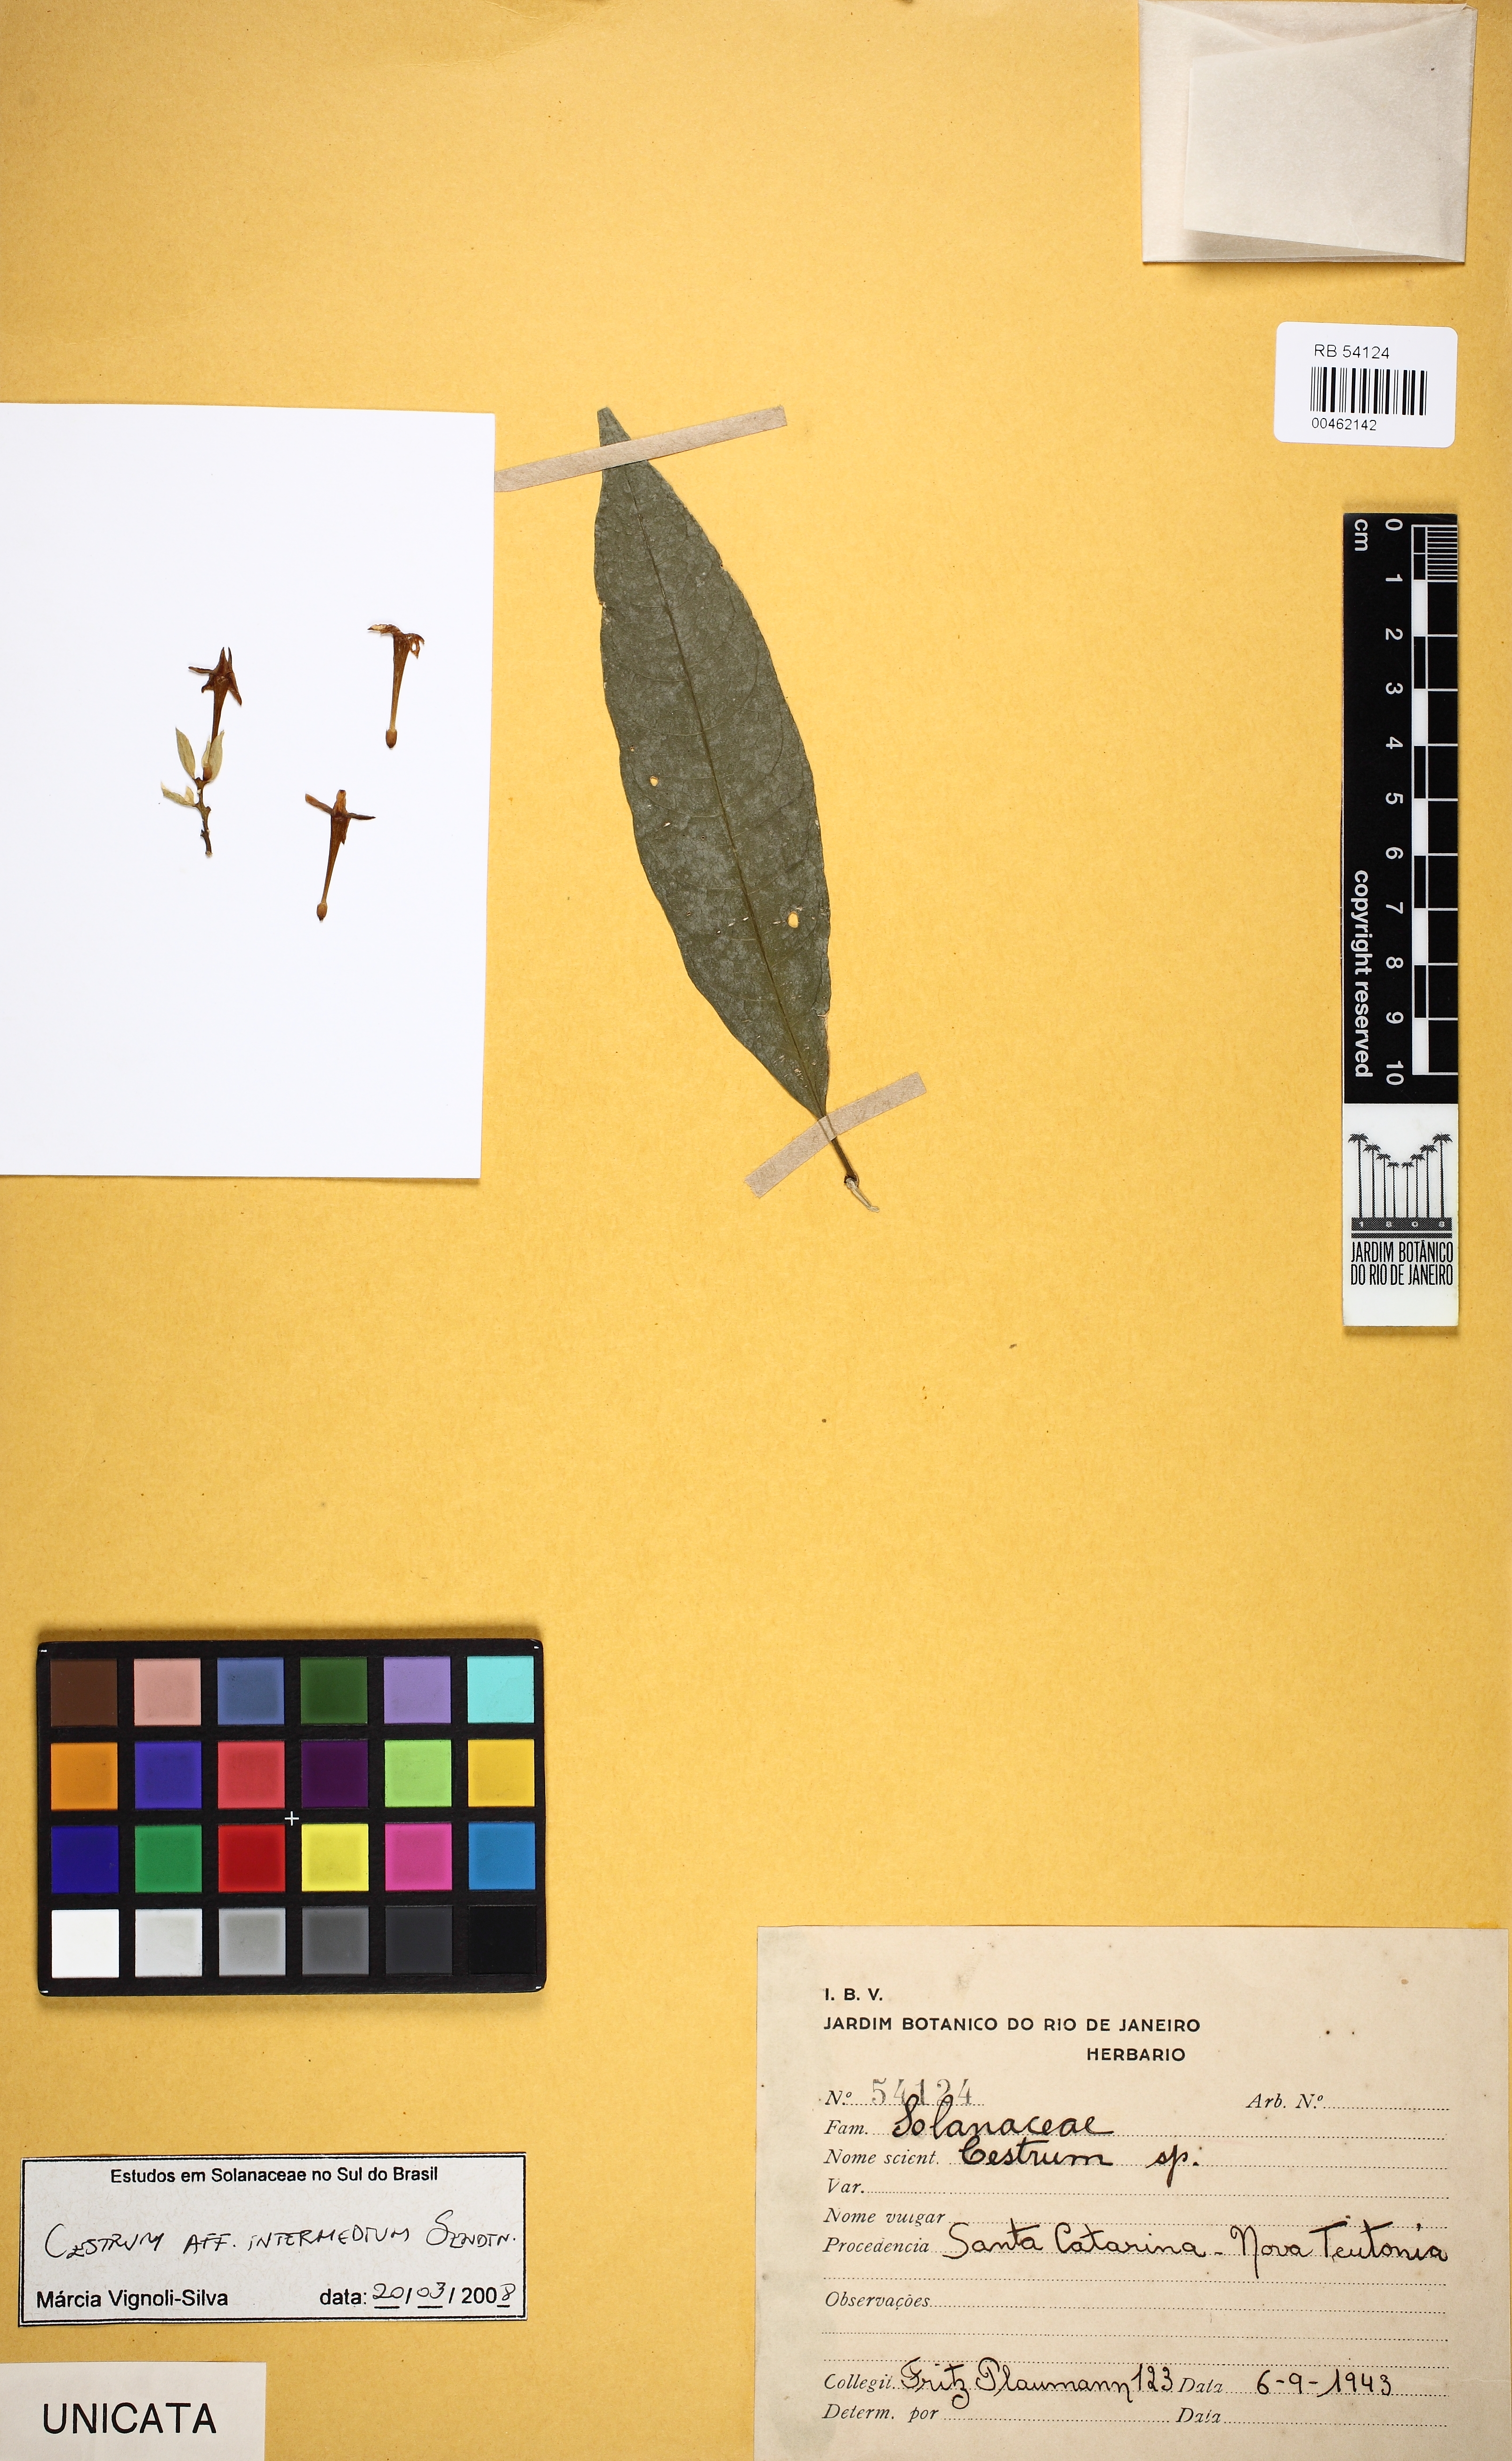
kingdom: Plantae
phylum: Tracheophyta
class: Magnoliopsida
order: Solanales
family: Solanaceae
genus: Cestrum
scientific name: Cestrum intermedium
